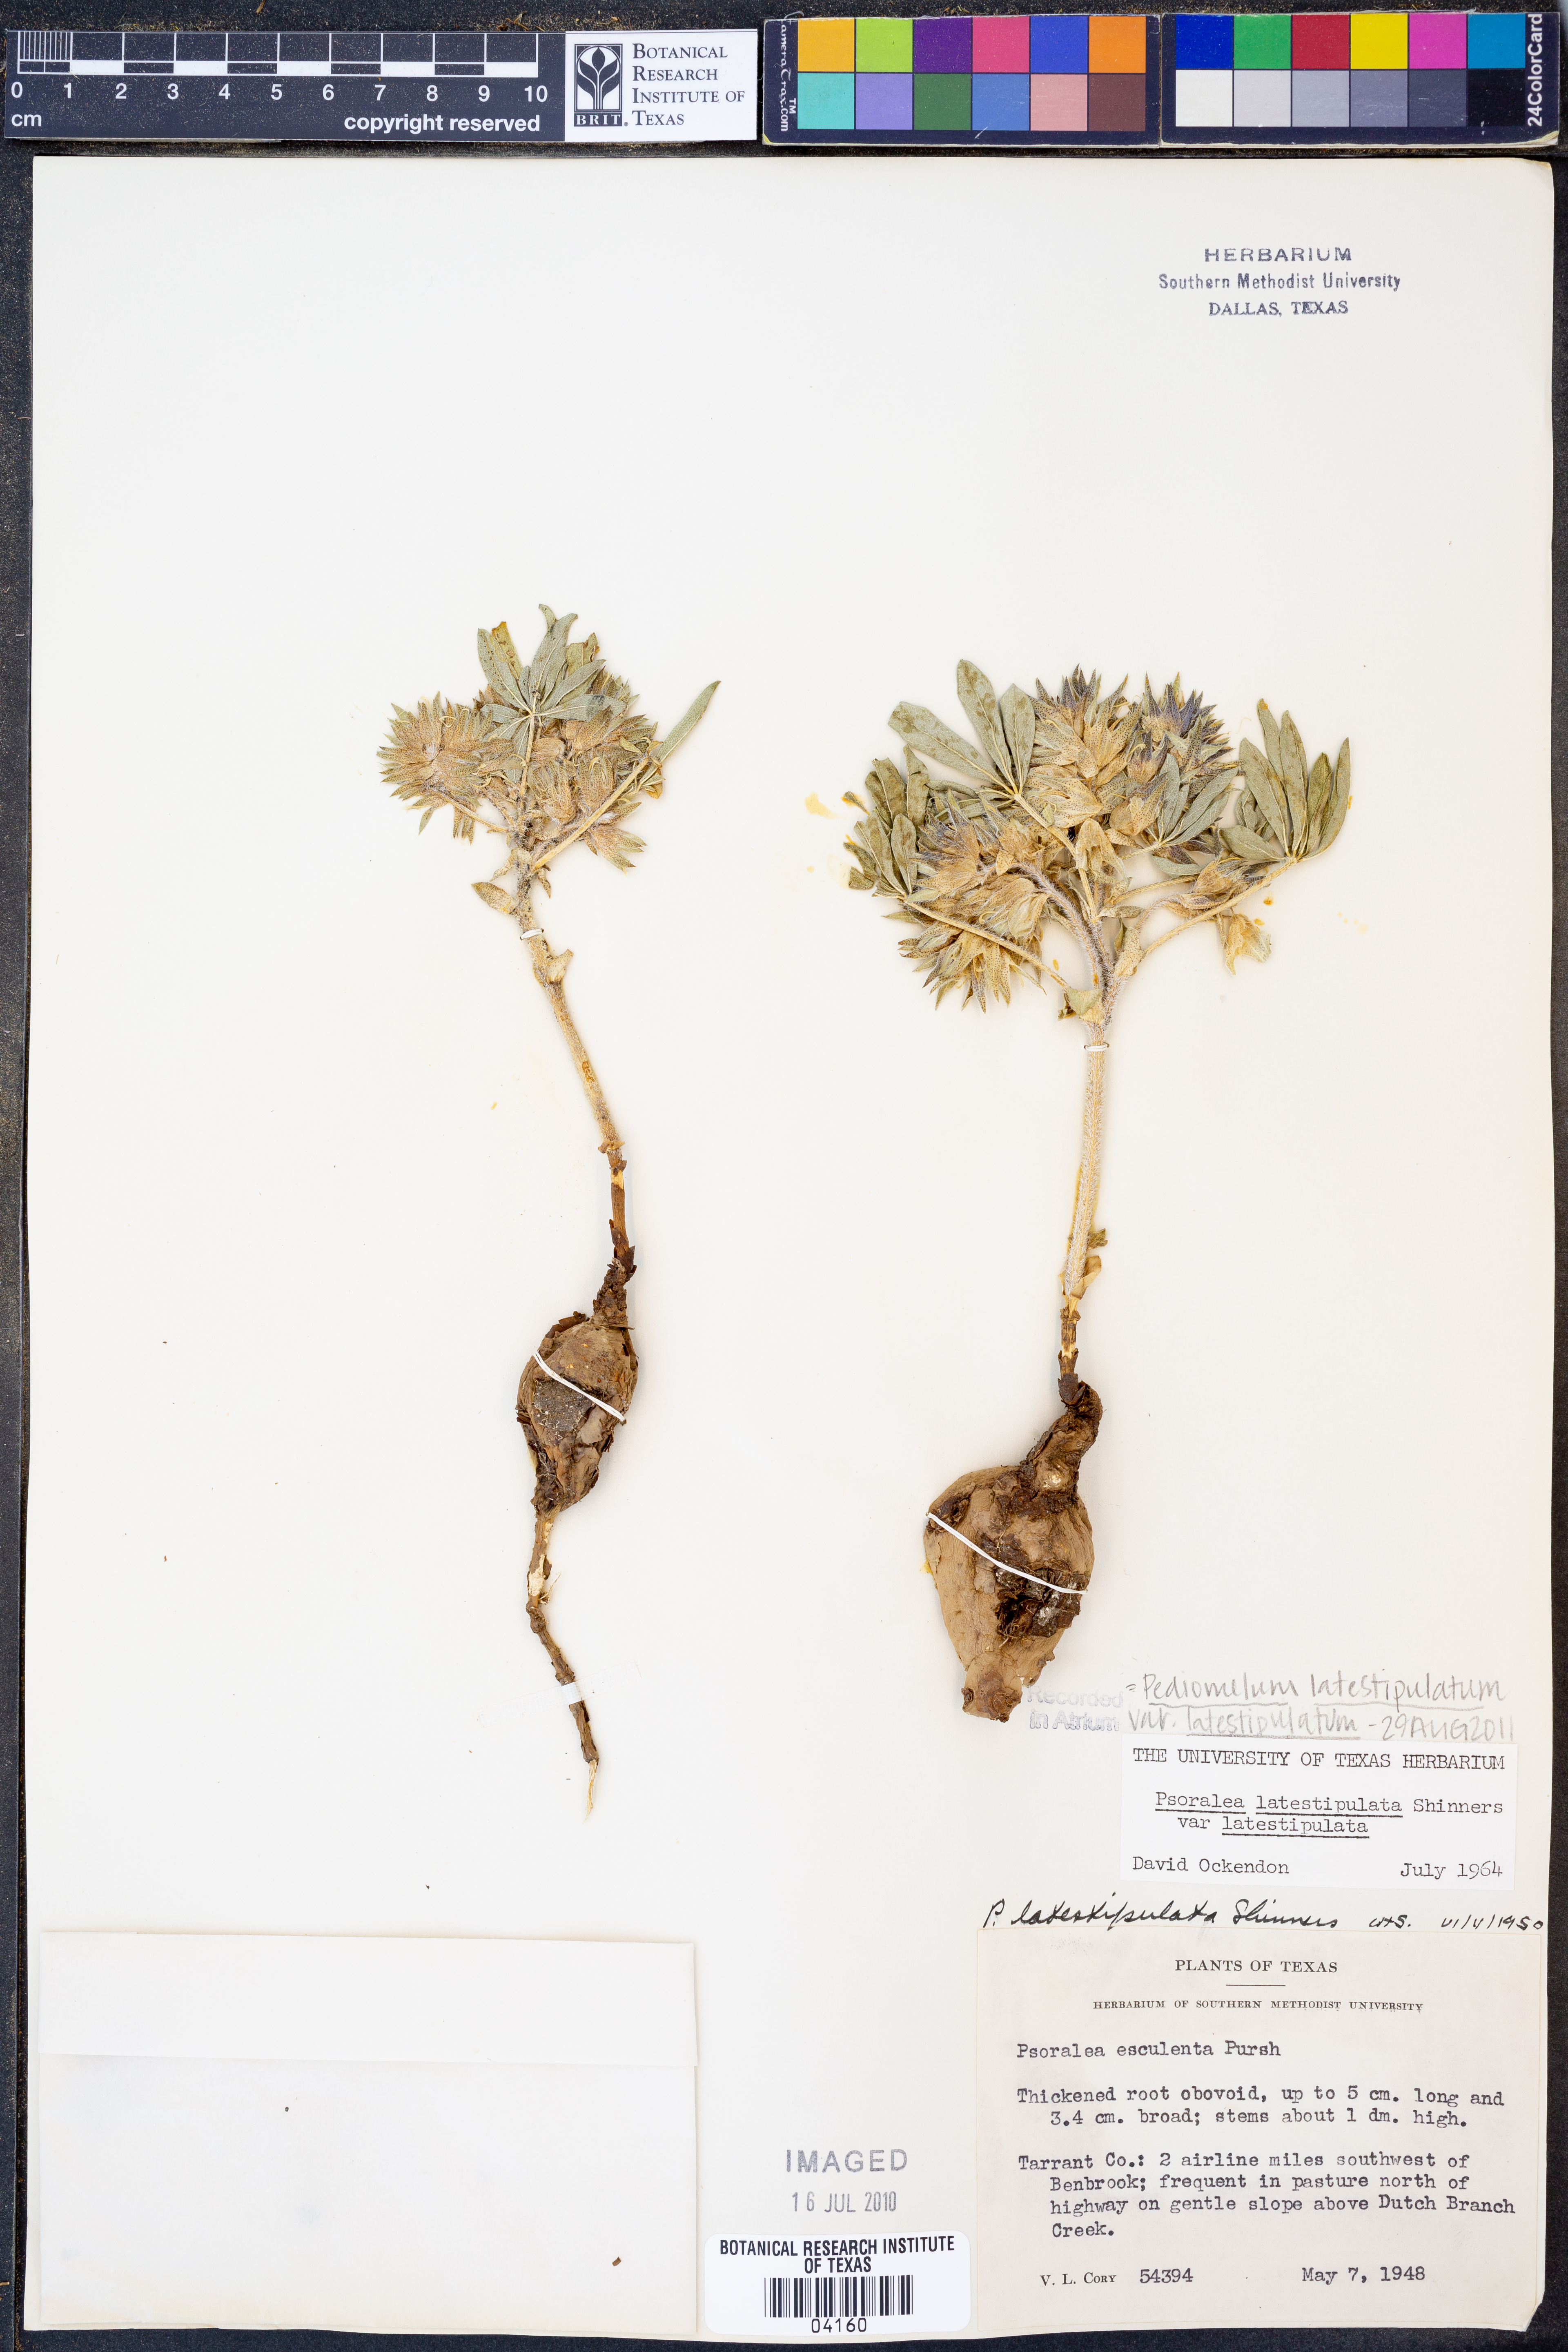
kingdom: Plantae
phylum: Tracheophyta
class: Magnoliopsida
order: Fabales
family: Fabaceae
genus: Pediomelum
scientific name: Pediomelum latestipulatum
